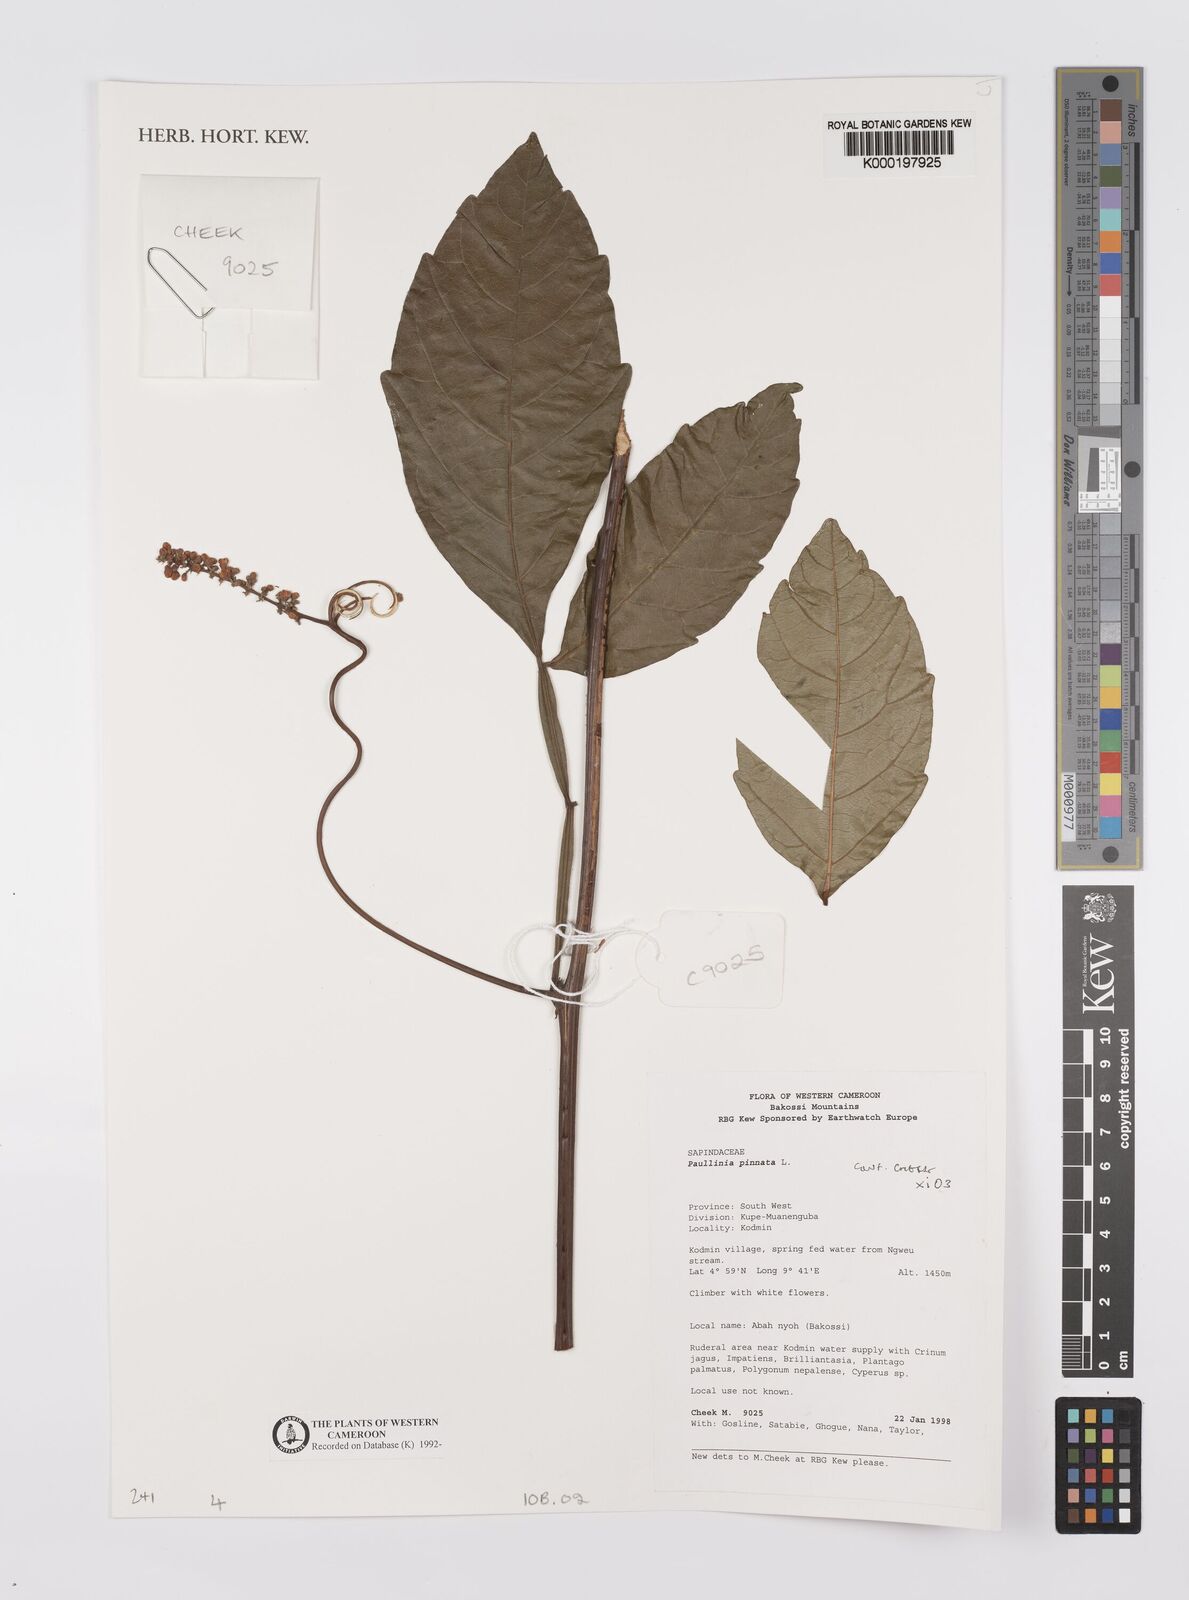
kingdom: Plantae
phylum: Tracheophyta
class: Magnoliopsida
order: Sapindales
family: Sapindaceae
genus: Paullinia
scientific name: Paullinia pinnata
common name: Barbasco
